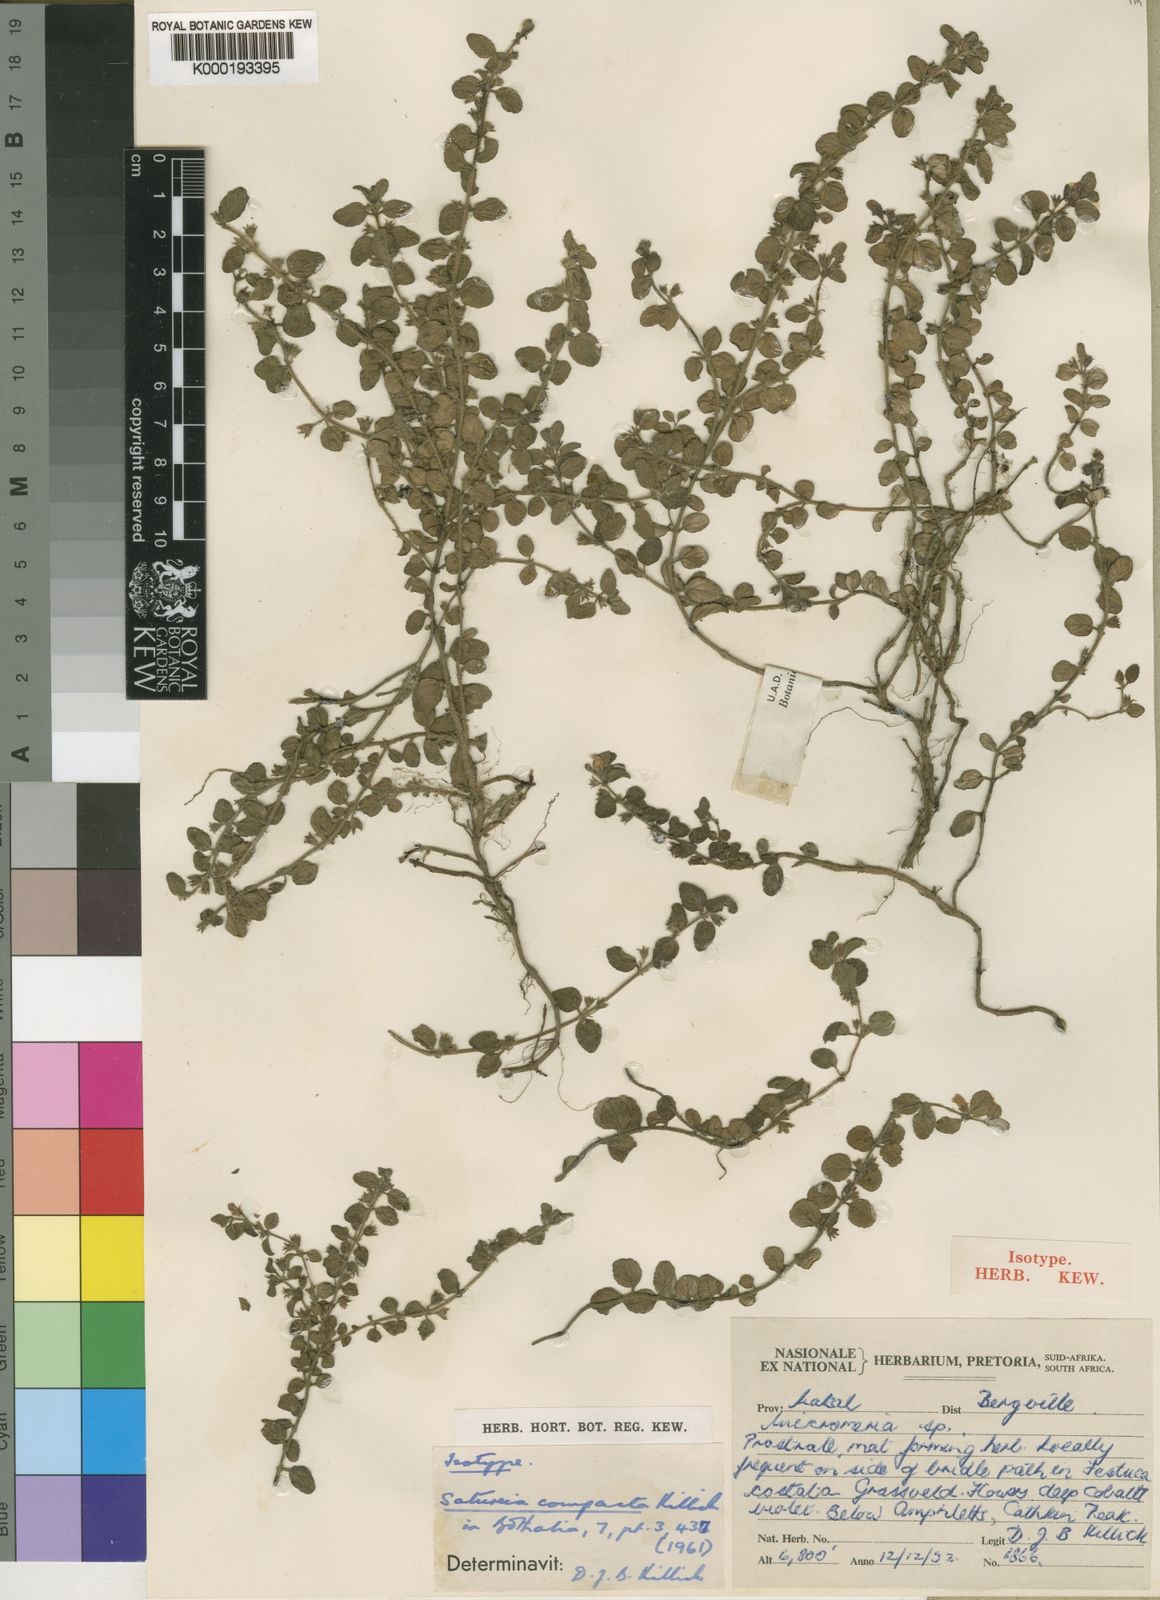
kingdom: Plantae
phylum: Tracheophyta
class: Magnoliopsida
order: Lamiales
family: Lamiaceae
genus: Killickia
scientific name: Killickia
